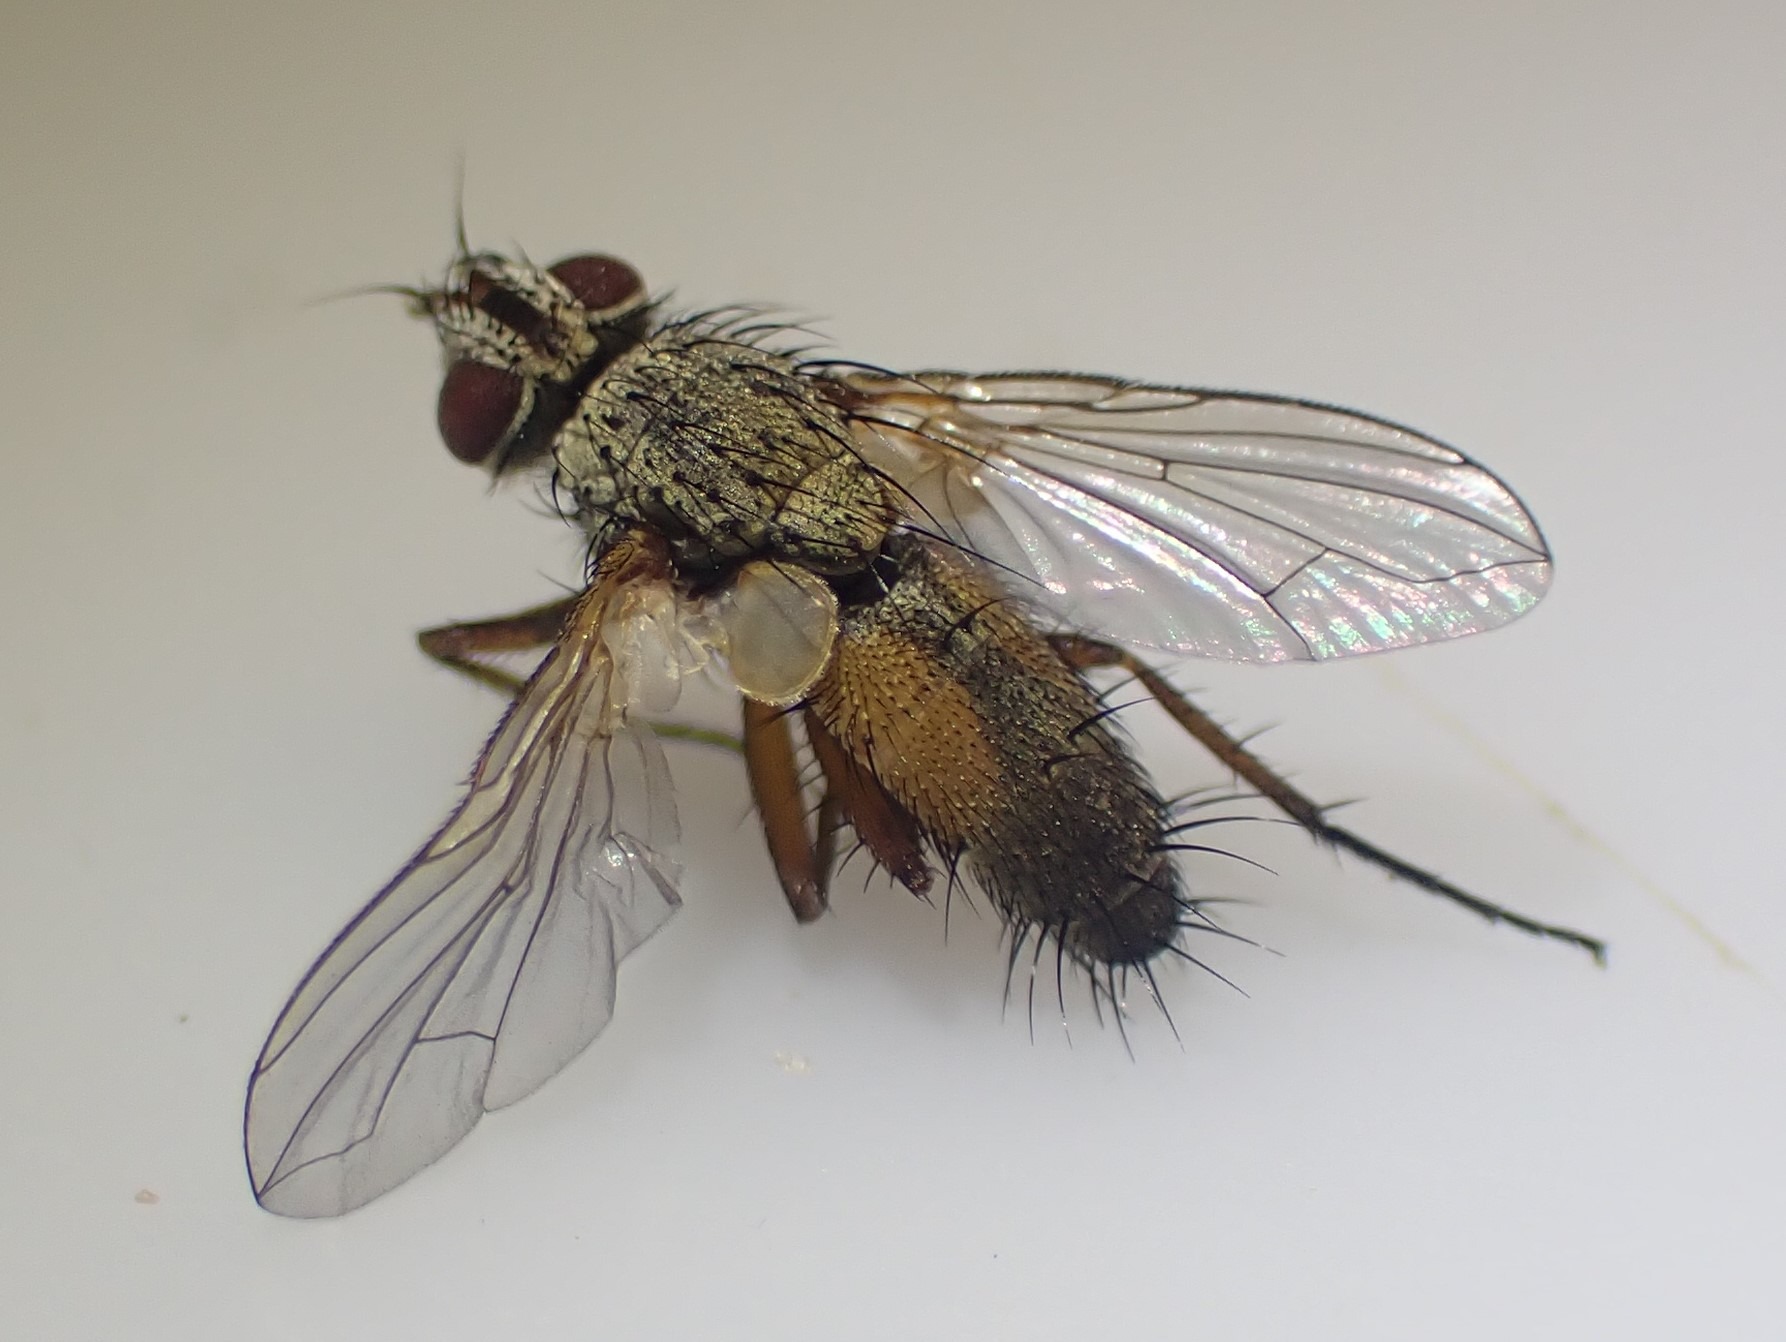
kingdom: Animalia
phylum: Arthropoda
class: Insecta
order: Diptera
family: Tachinidae
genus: Solieria
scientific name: Solieria pacifica
